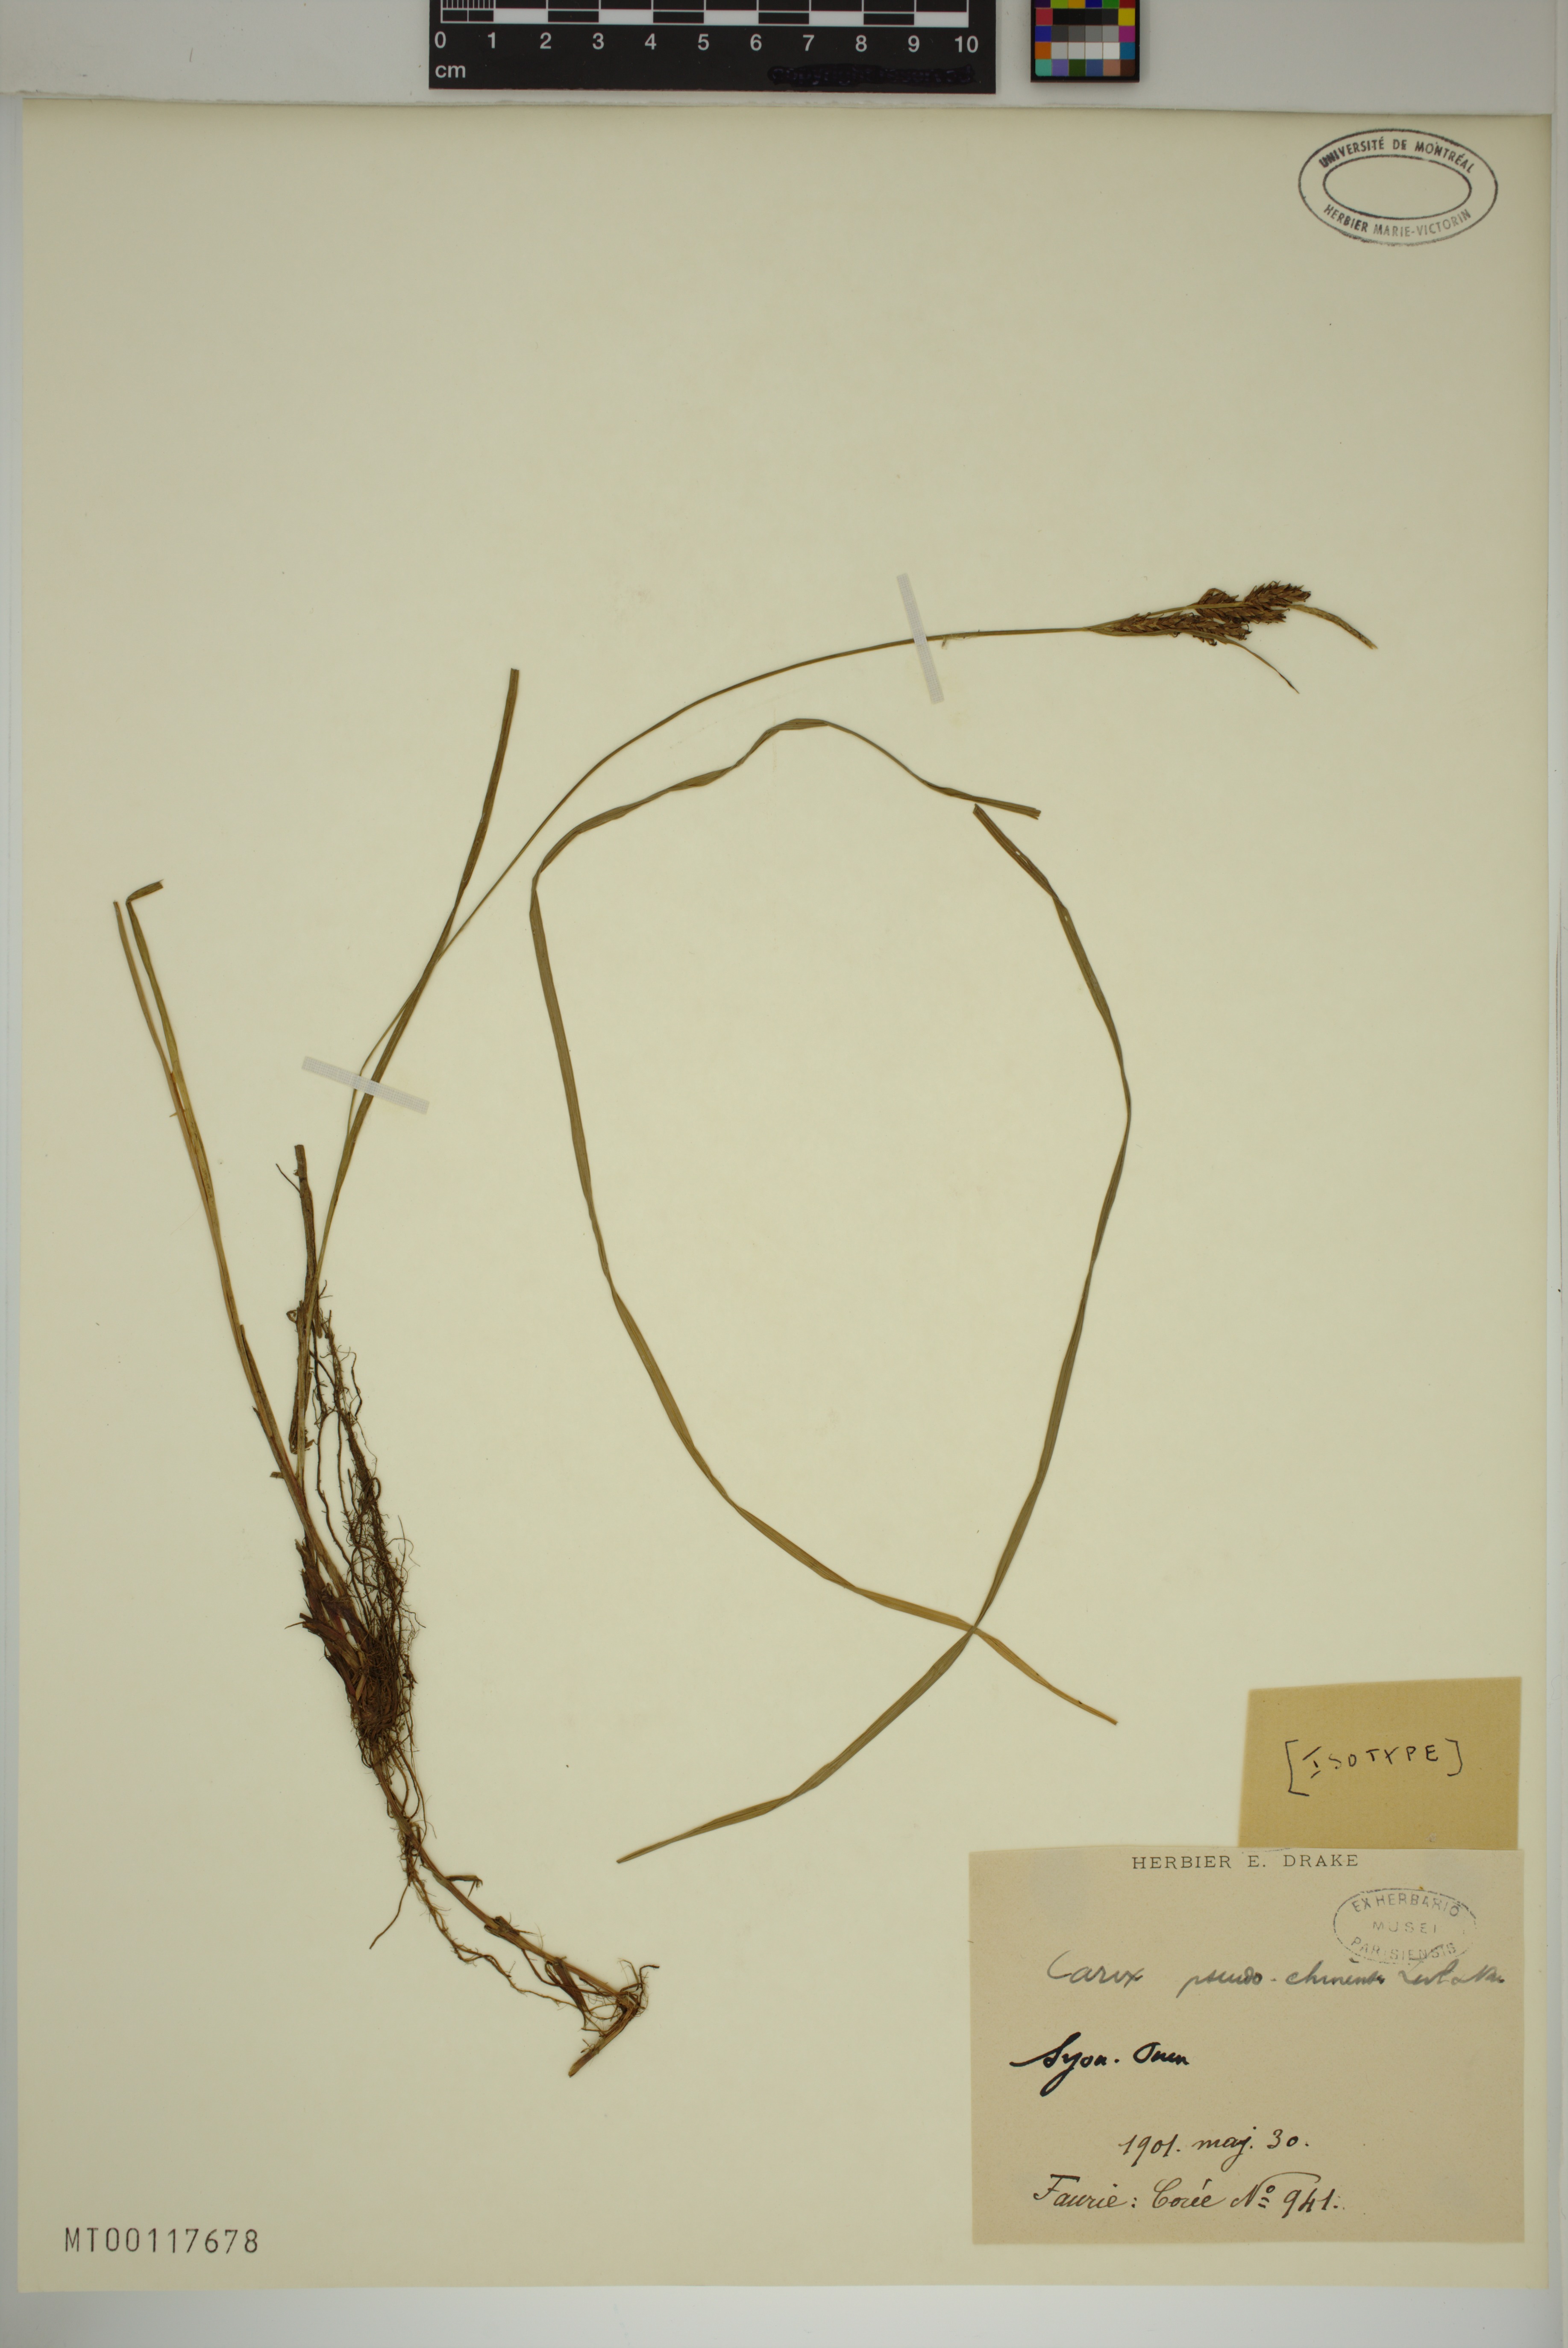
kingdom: Plantae
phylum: Tracheophyta
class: Liliopsida
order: Poales
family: Cyperaceae
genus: Carex
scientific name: Carex pseudochinensis
